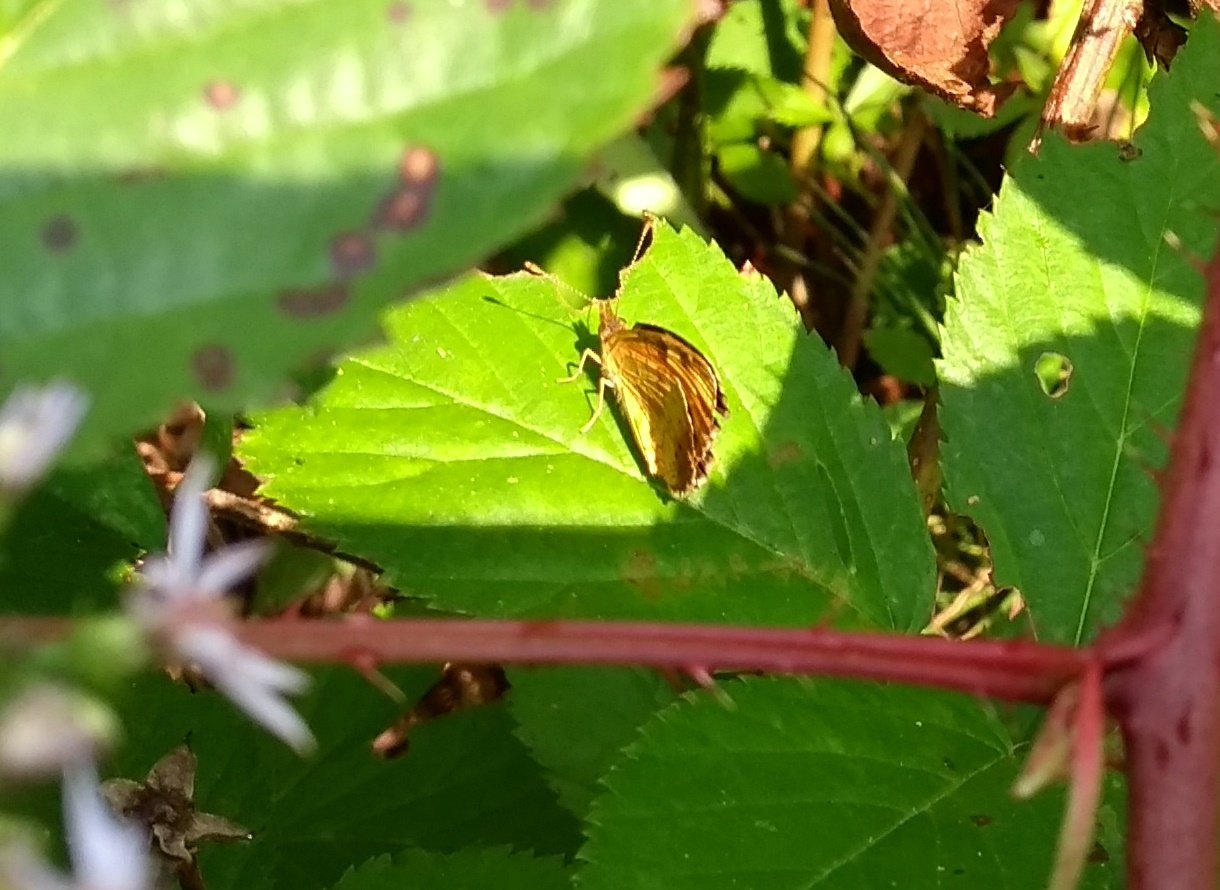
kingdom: Animalia
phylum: Arthropoda
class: Insecta
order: Lepidoptera
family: Nymphalidae
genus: Phyciodes
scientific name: Phyciodes tharos
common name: Northern Crescent
